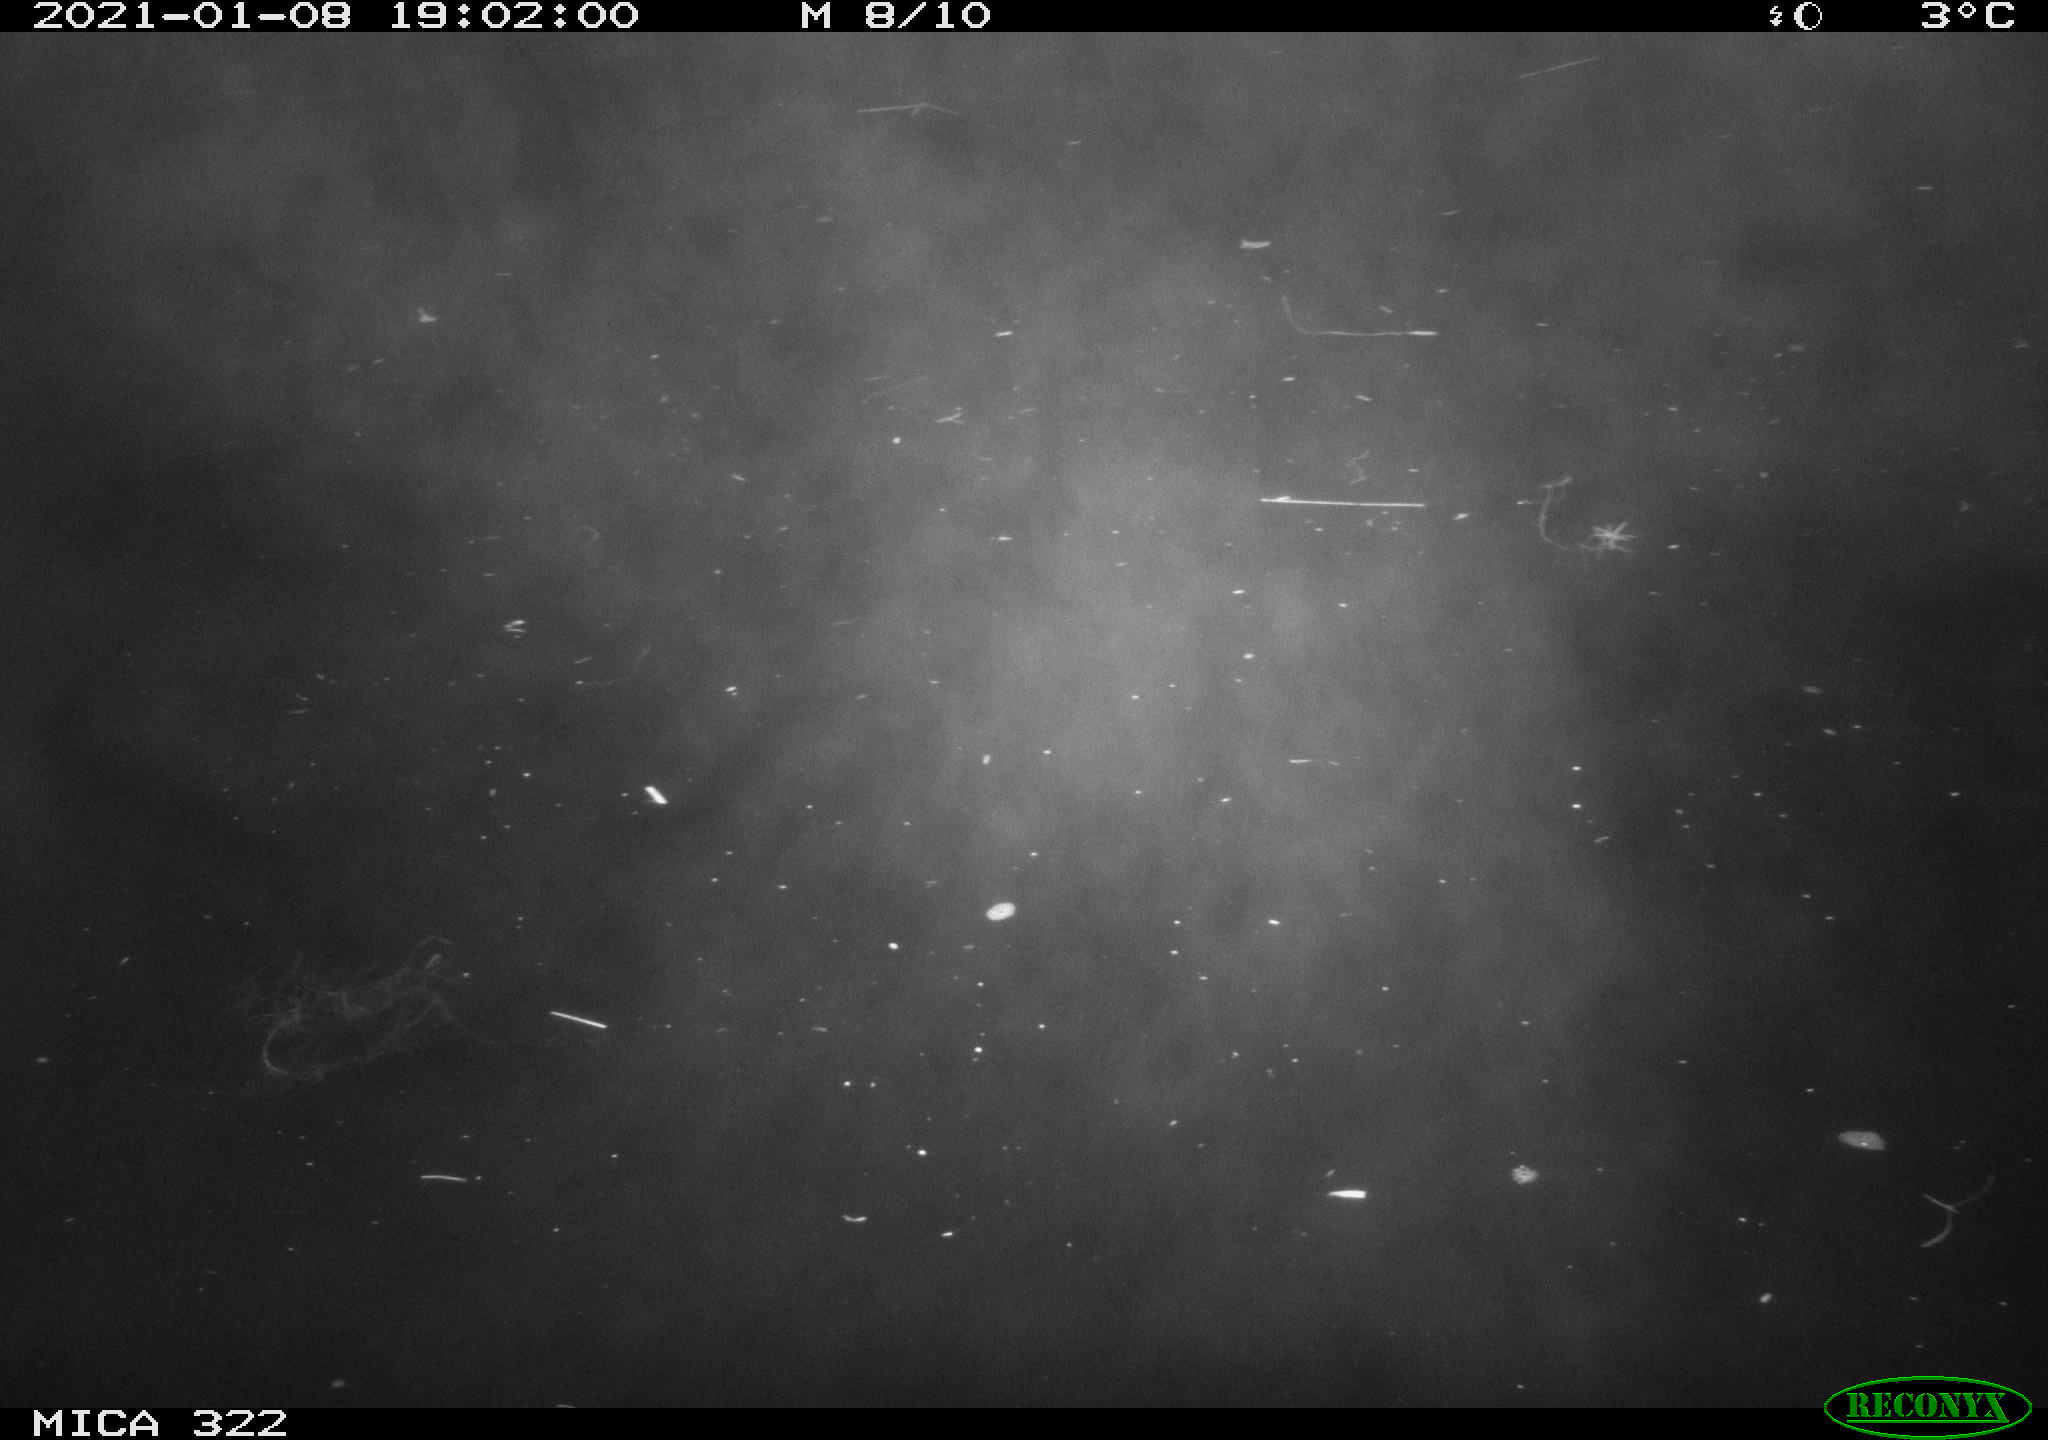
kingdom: Animalia
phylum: Chordata
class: Mammalia
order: Rodentia
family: Muridae
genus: Rattus
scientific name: Rattus norvegicus
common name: Brown rat
